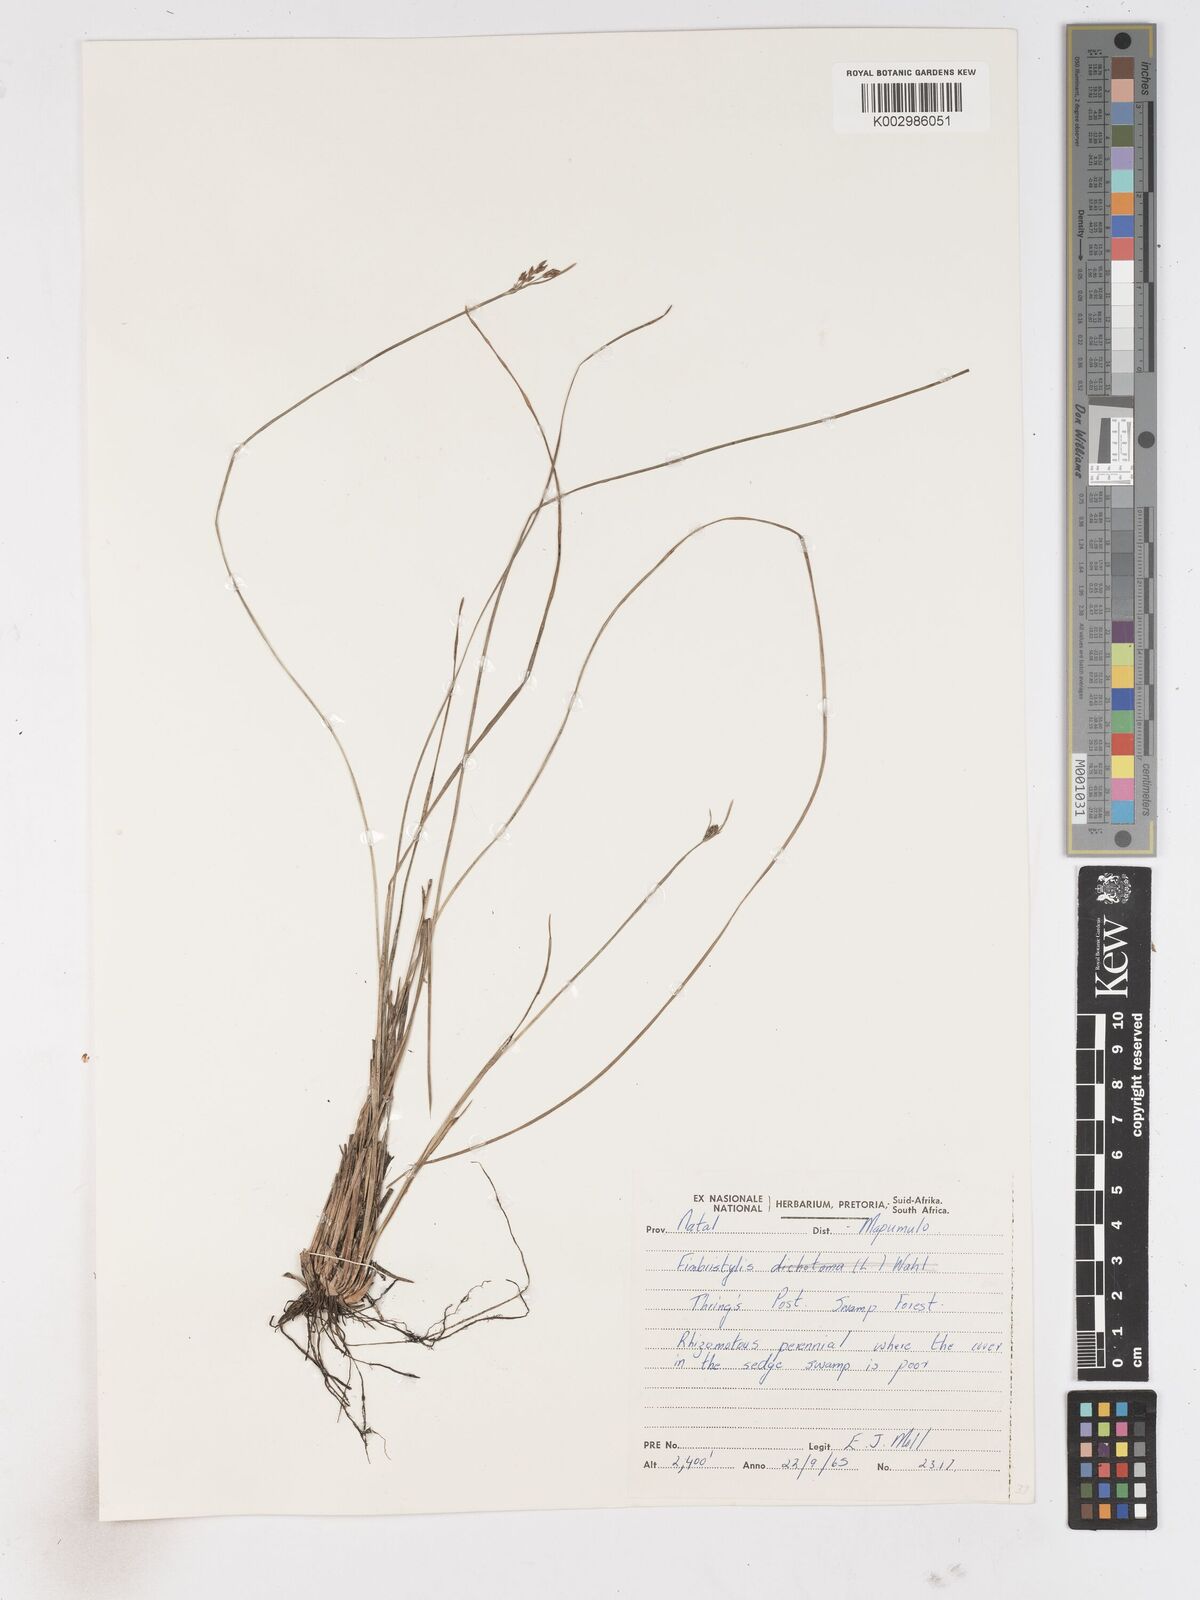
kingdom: Plantae
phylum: Tracheophyta
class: Liliopsida
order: Poales
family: Cyperaceae
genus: Fimbristylis
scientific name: Fimbristylis
